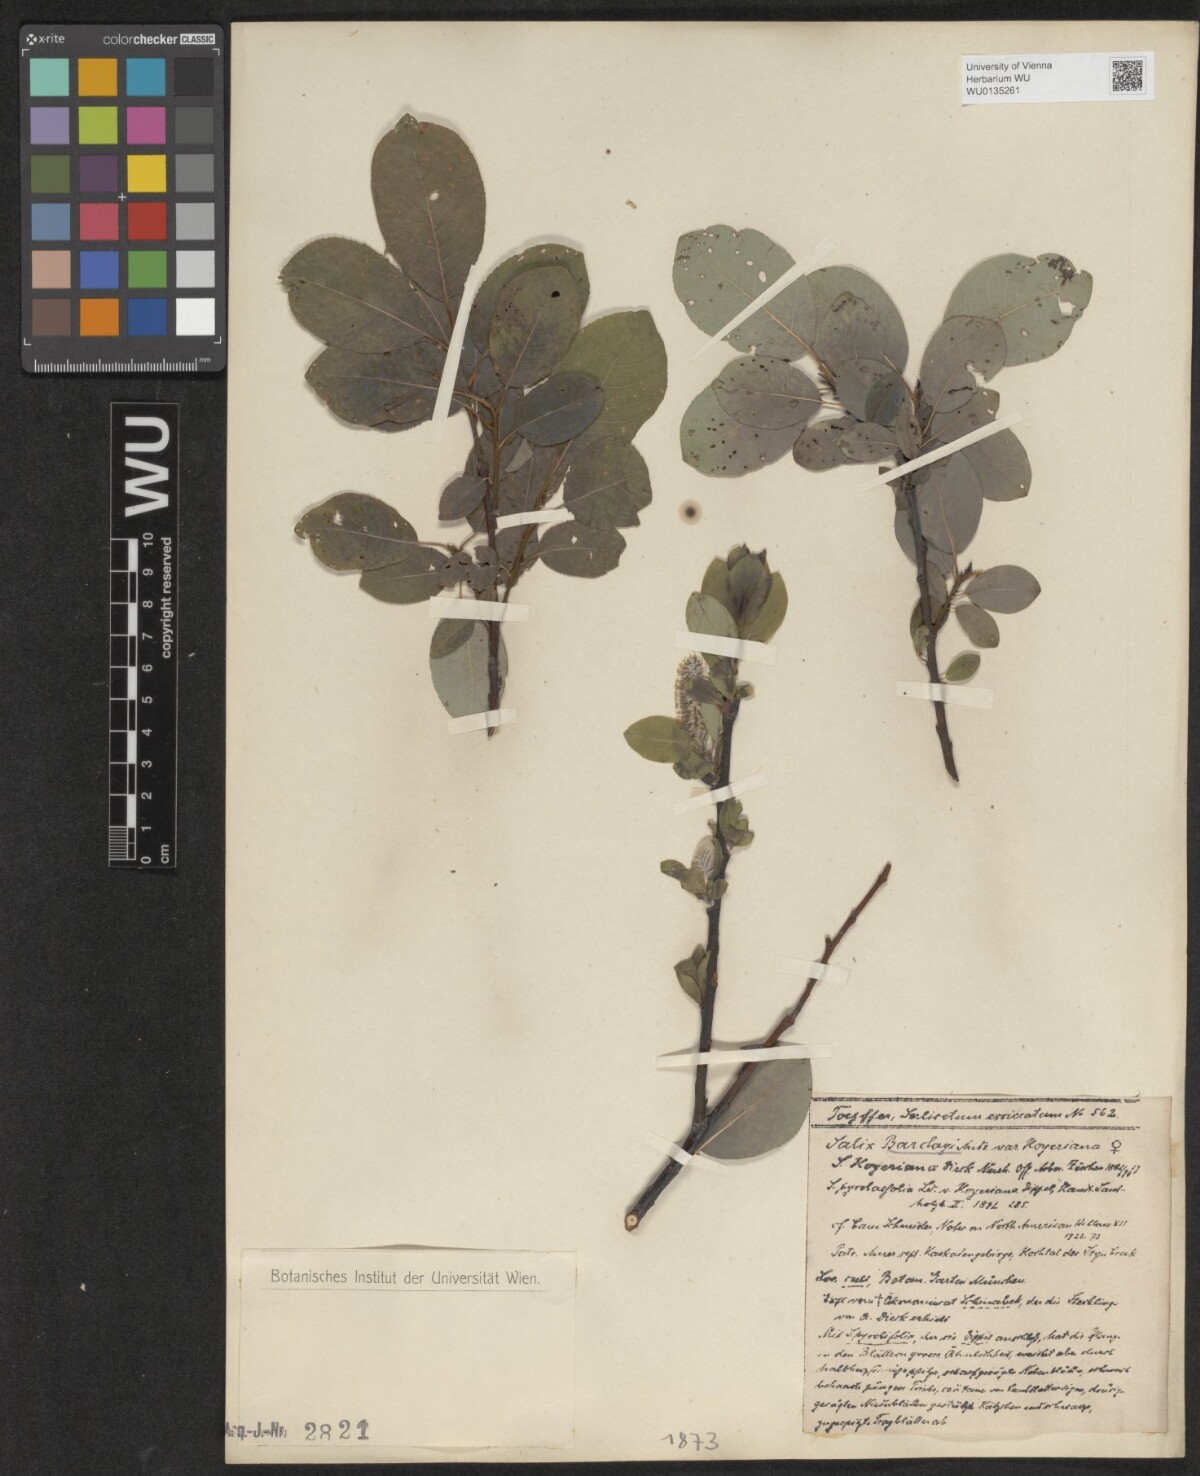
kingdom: Plantae
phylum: Tracheophyta
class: Magnoliopsida
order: Malpighiales
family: Salicaceae
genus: Salix
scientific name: Salix barclayi
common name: Mountain willow
